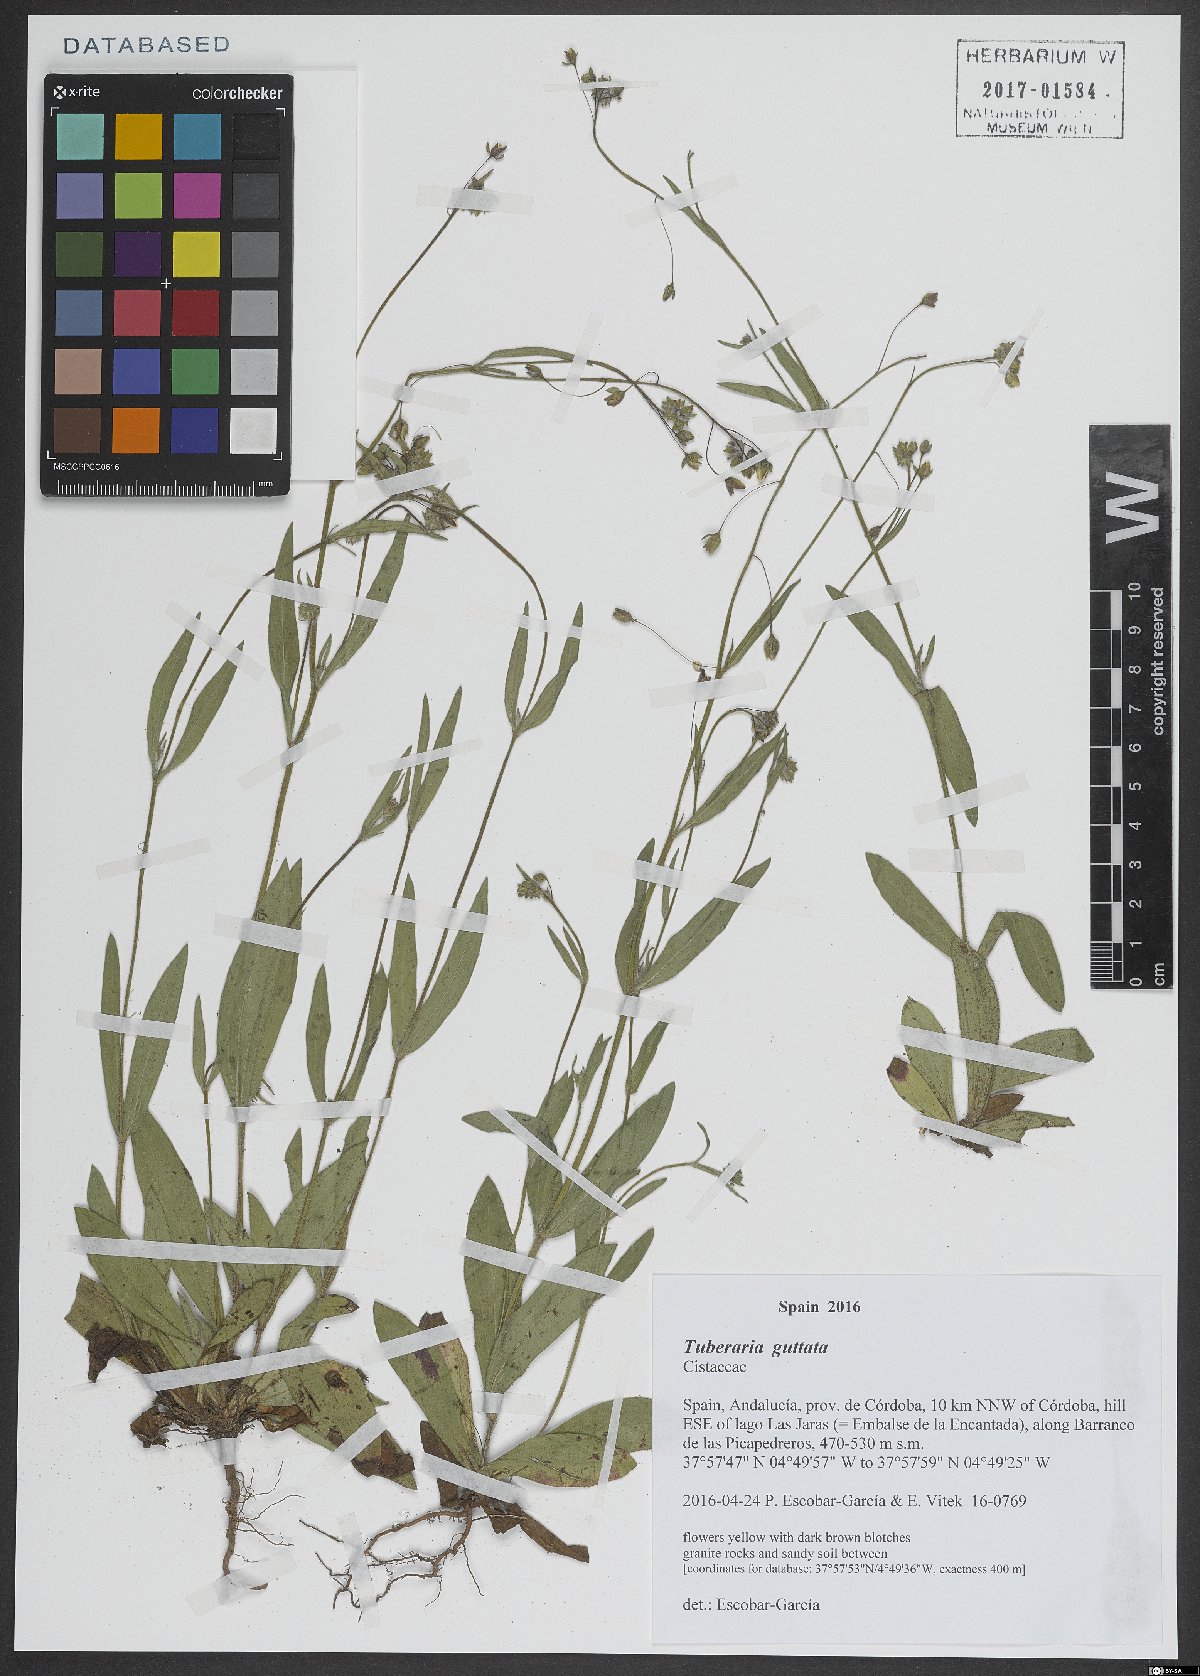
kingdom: Plantae
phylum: Tracheophyta
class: Magnoliopsida
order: Malvales
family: Cistaceae
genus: Tuberaria
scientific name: Tuberaria guttata
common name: Spotted rock-rose
